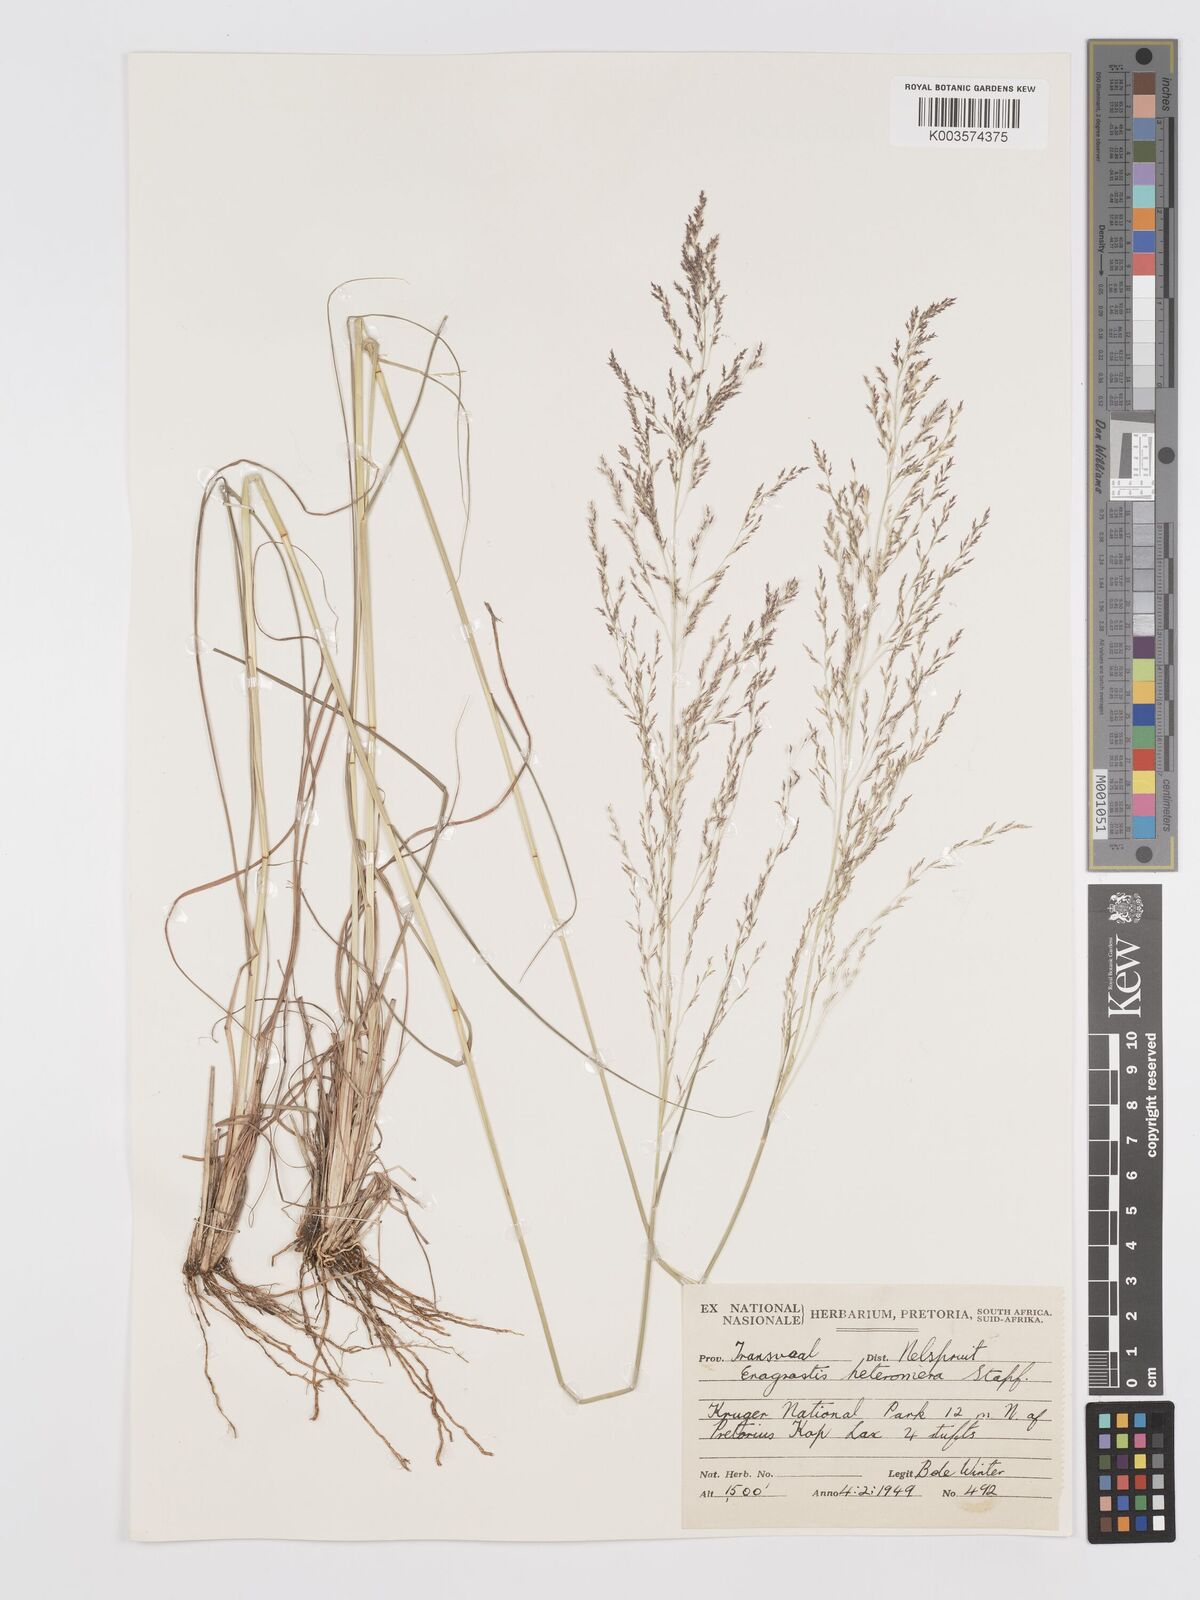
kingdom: Plantae
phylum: Tracheophyta
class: Liliopsida
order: Poales
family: Poaceae
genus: Eragrostis
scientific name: Eragrostis heteromera
